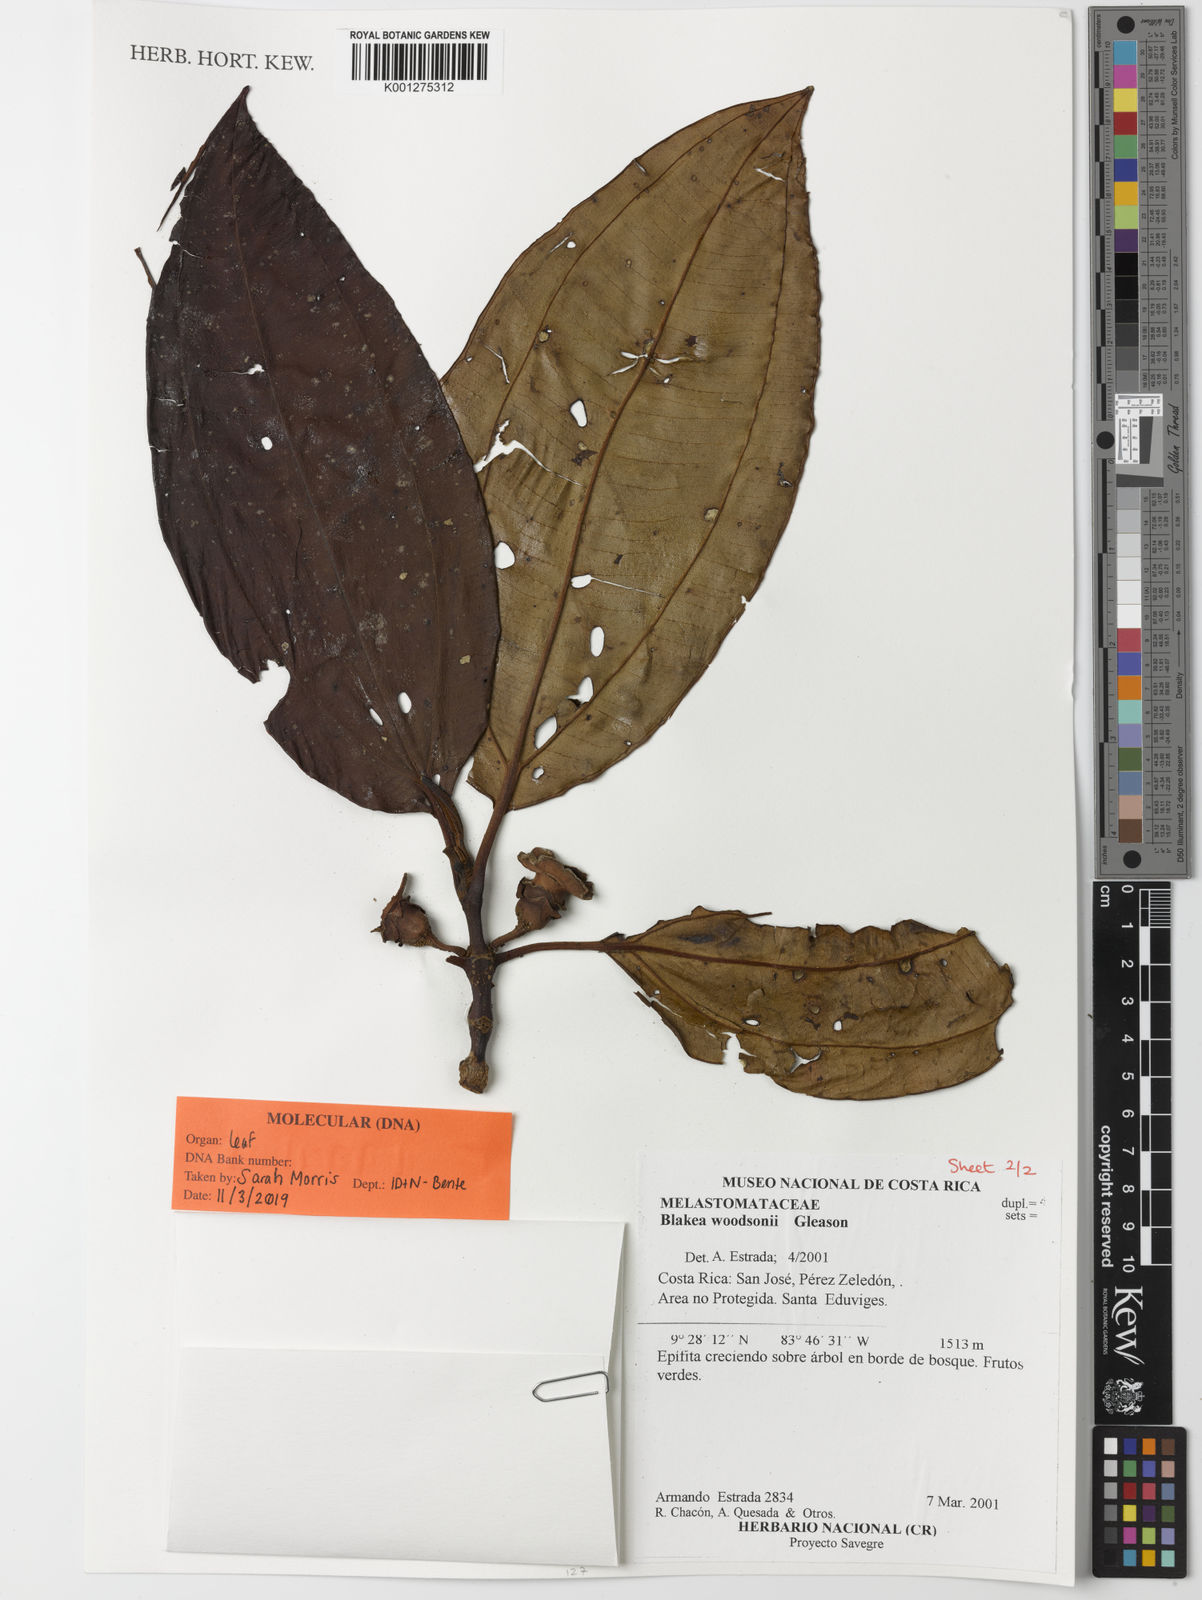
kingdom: Plantae
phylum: Tracheophyta
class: Magnoliopsida
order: Myrtales
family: Melastomataceae
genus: Blakea
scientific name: Blakea storkii
